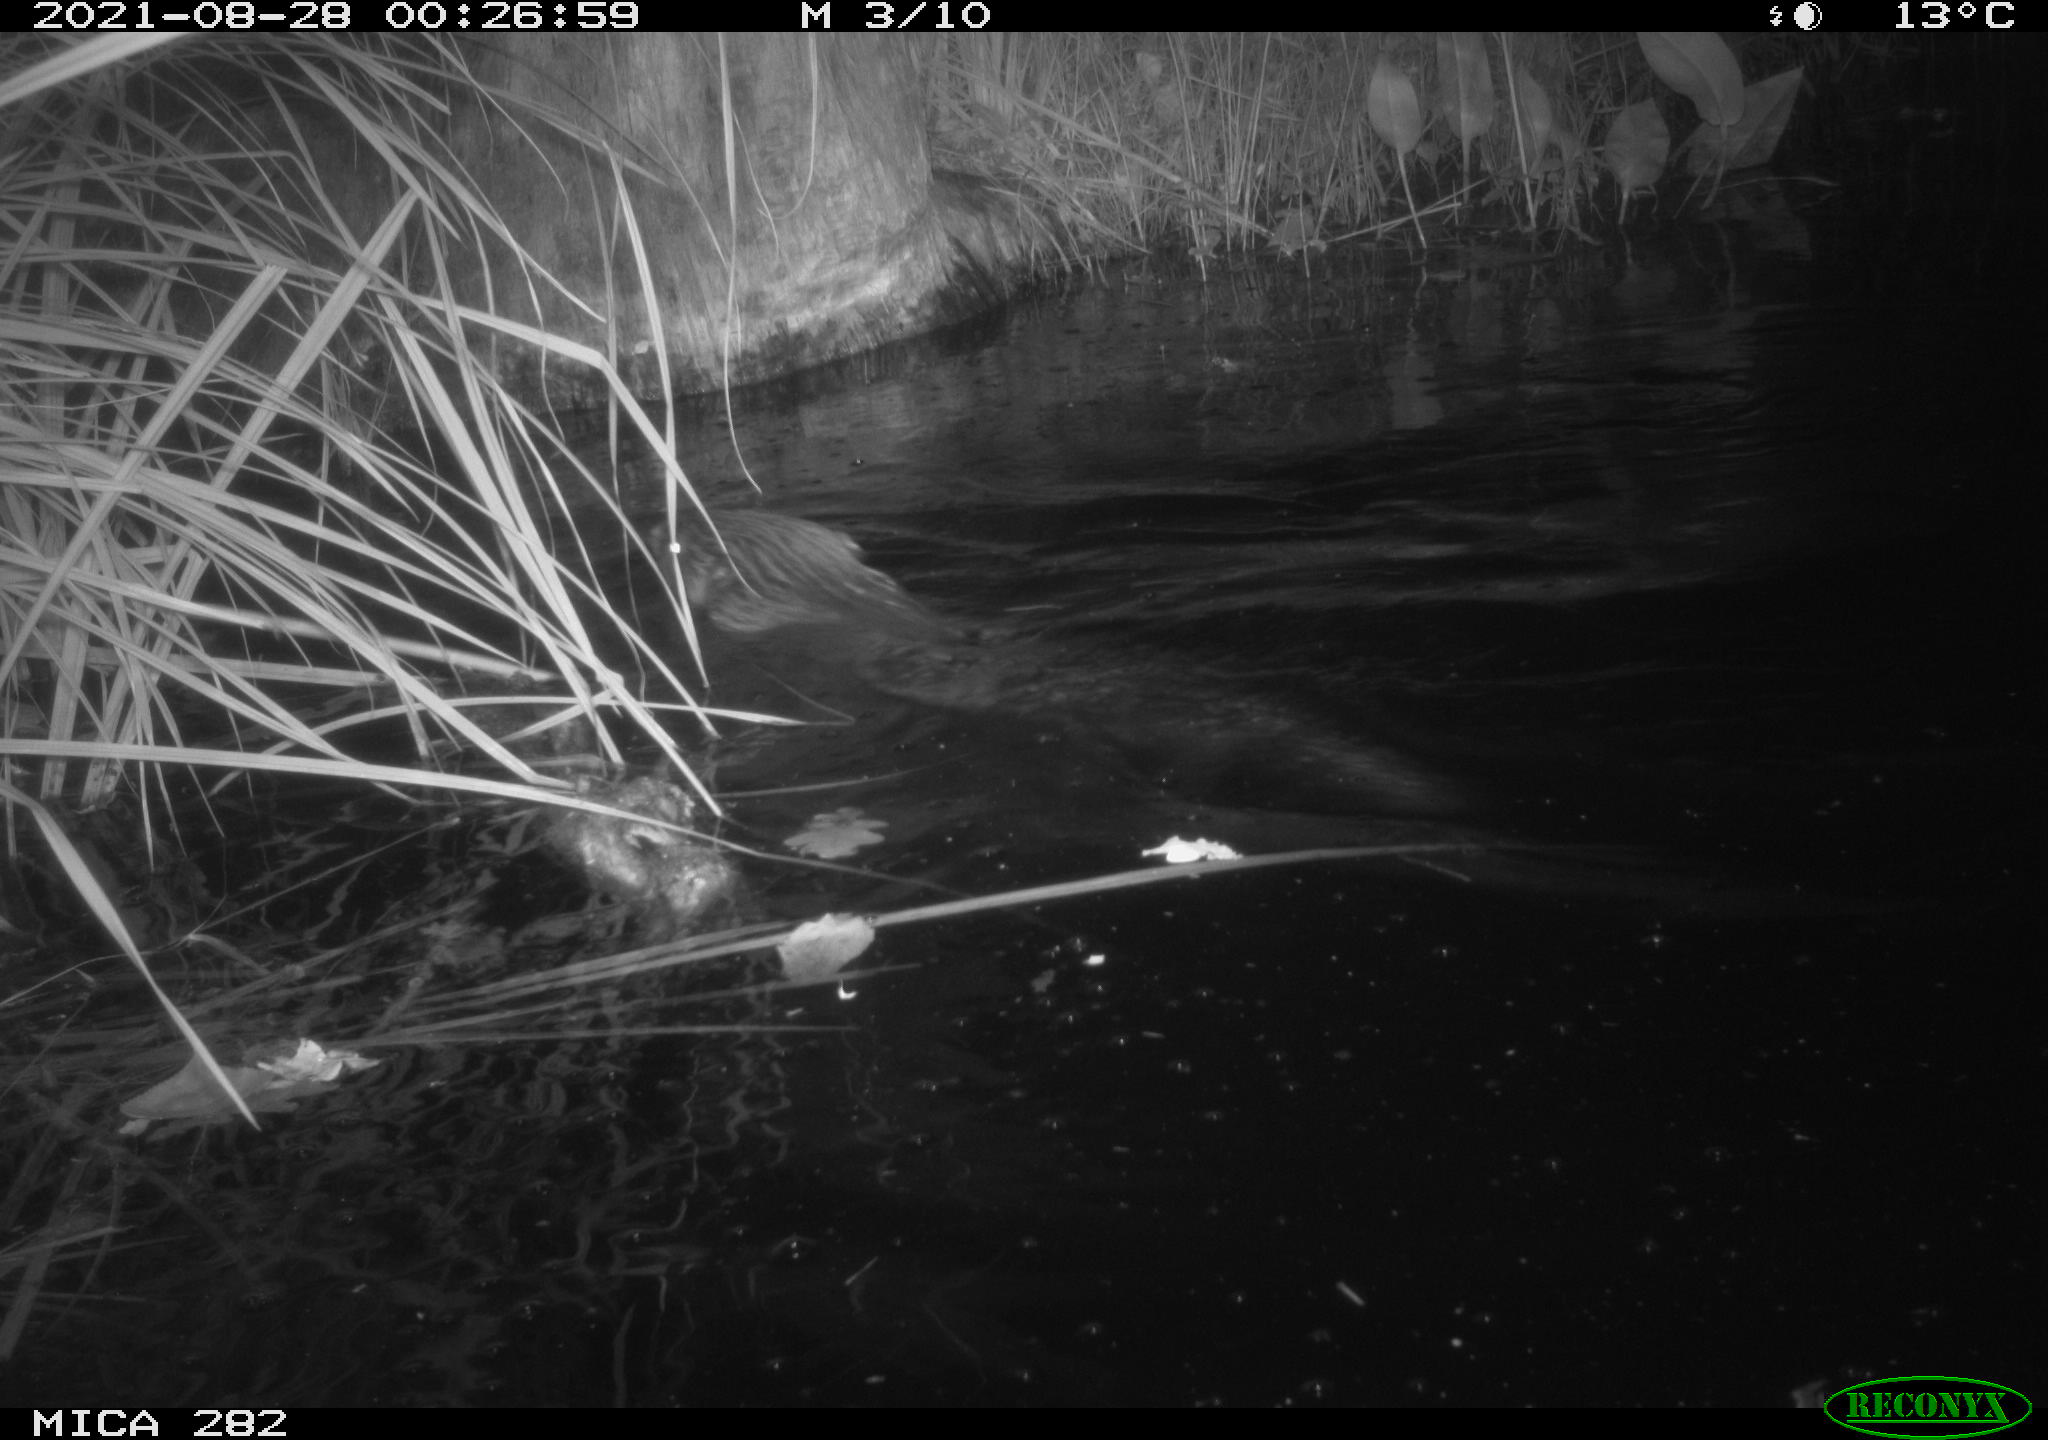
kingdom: Animalia
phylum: Chordata
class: Mammalia
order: Rodentia
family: Castoridae
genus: Castor
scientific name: Castor fiber
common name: Eurasian beaver
